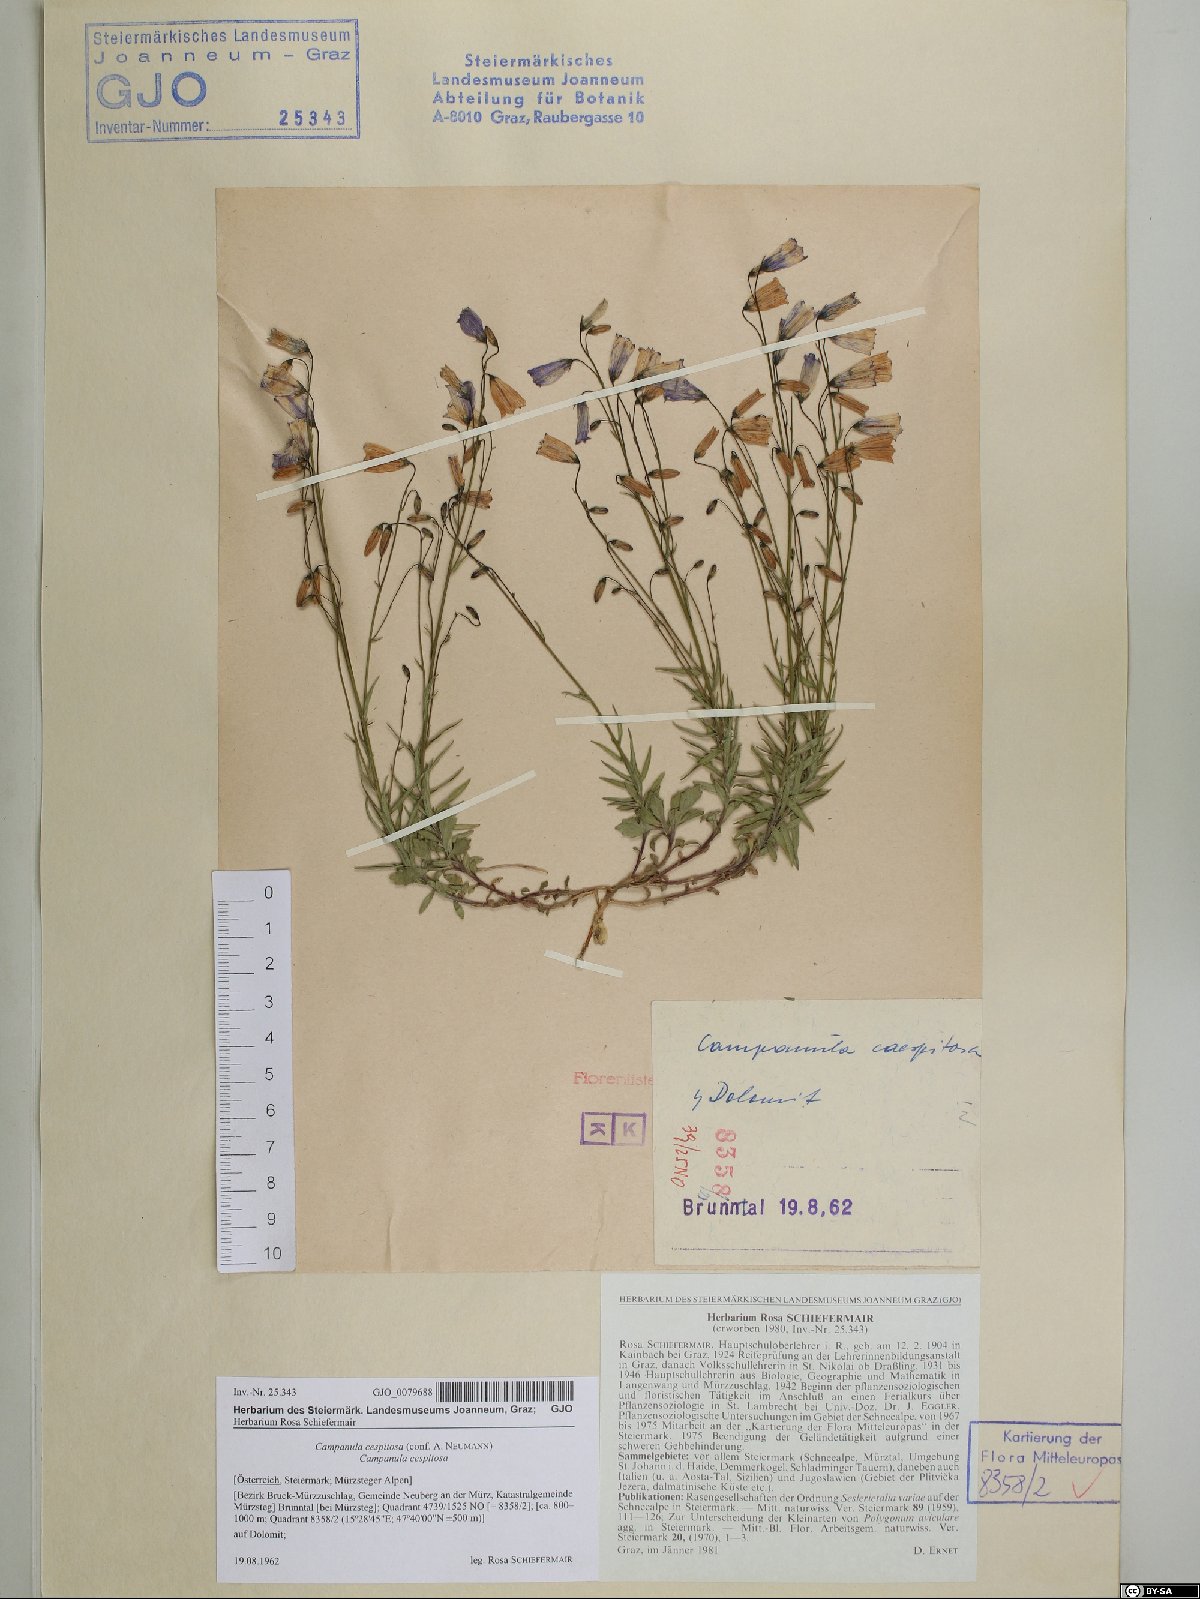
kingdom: Plantae
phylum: Tracheophyta
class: Magnoliopsida
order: Asterales
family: Campanulaceae
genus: Campanula
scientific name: Campanula cespitosa
